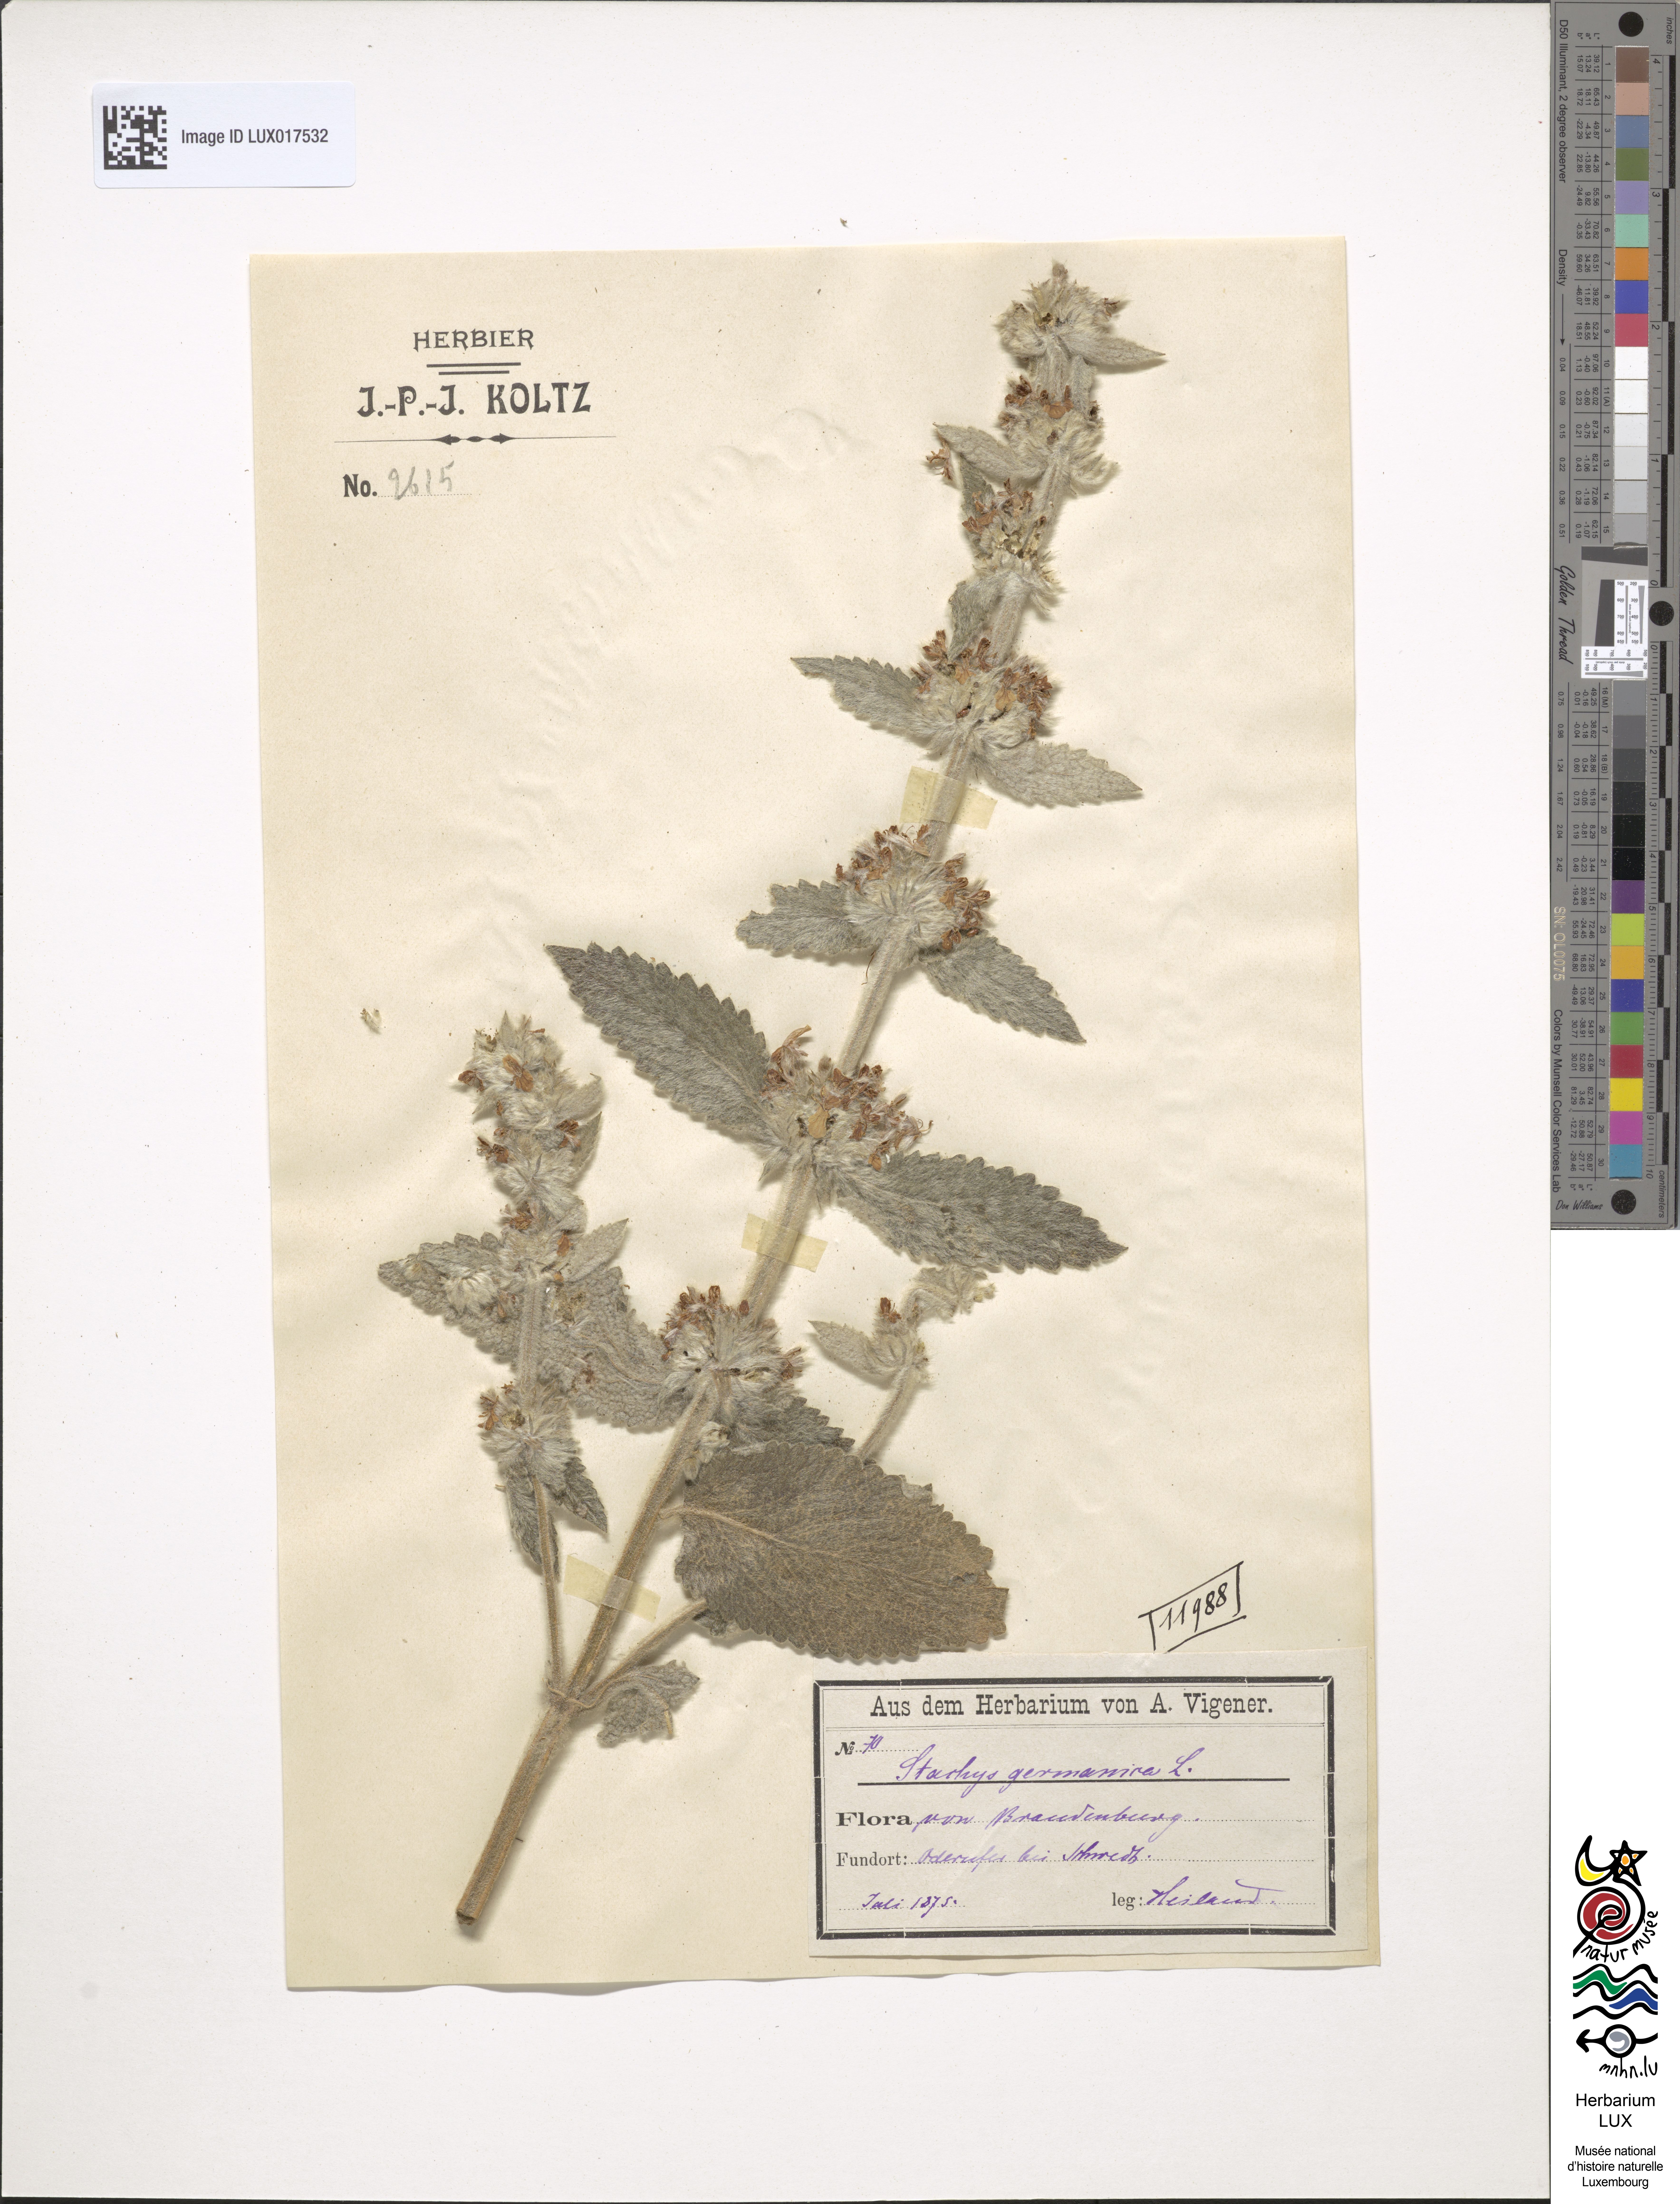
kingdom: Plantae
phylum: Tracheophyta
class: Magnoliopsida
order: Lamiales
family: Lamiaceae
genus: Stachys
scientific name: Stachys germanica
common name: Downy woundwort
